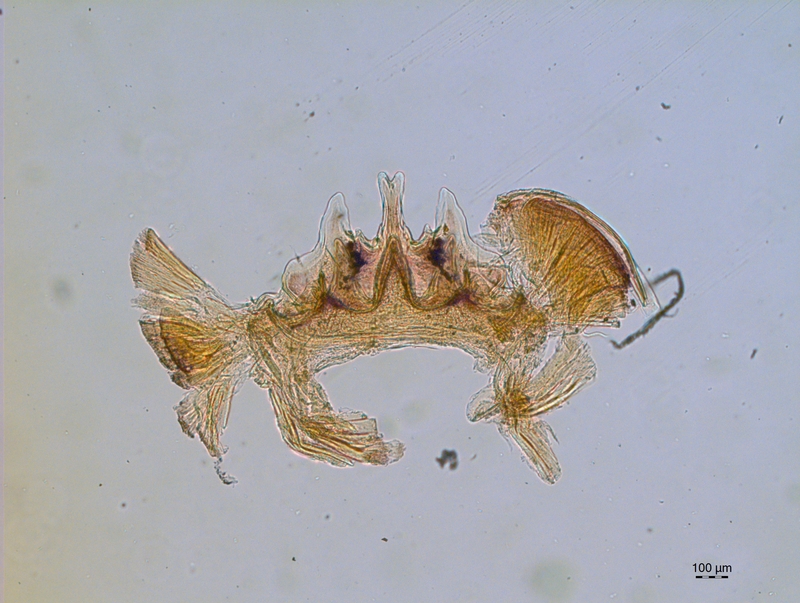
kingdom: Animalia
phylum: Arthropoda
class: Diplopoda
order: Chordeumatida
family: Craspedosomatidae
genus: Craspedosoma
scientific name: Craspedosoma alemannicum
